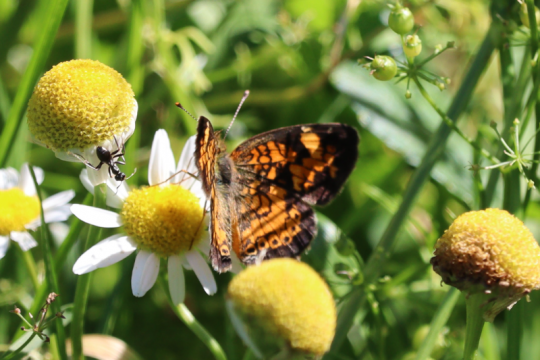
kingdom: Animalia
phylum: Arthropoda
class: Insecta
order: Lepidoptera
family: Nymphalidae
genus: Phyciodes
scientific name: Phyciodes
